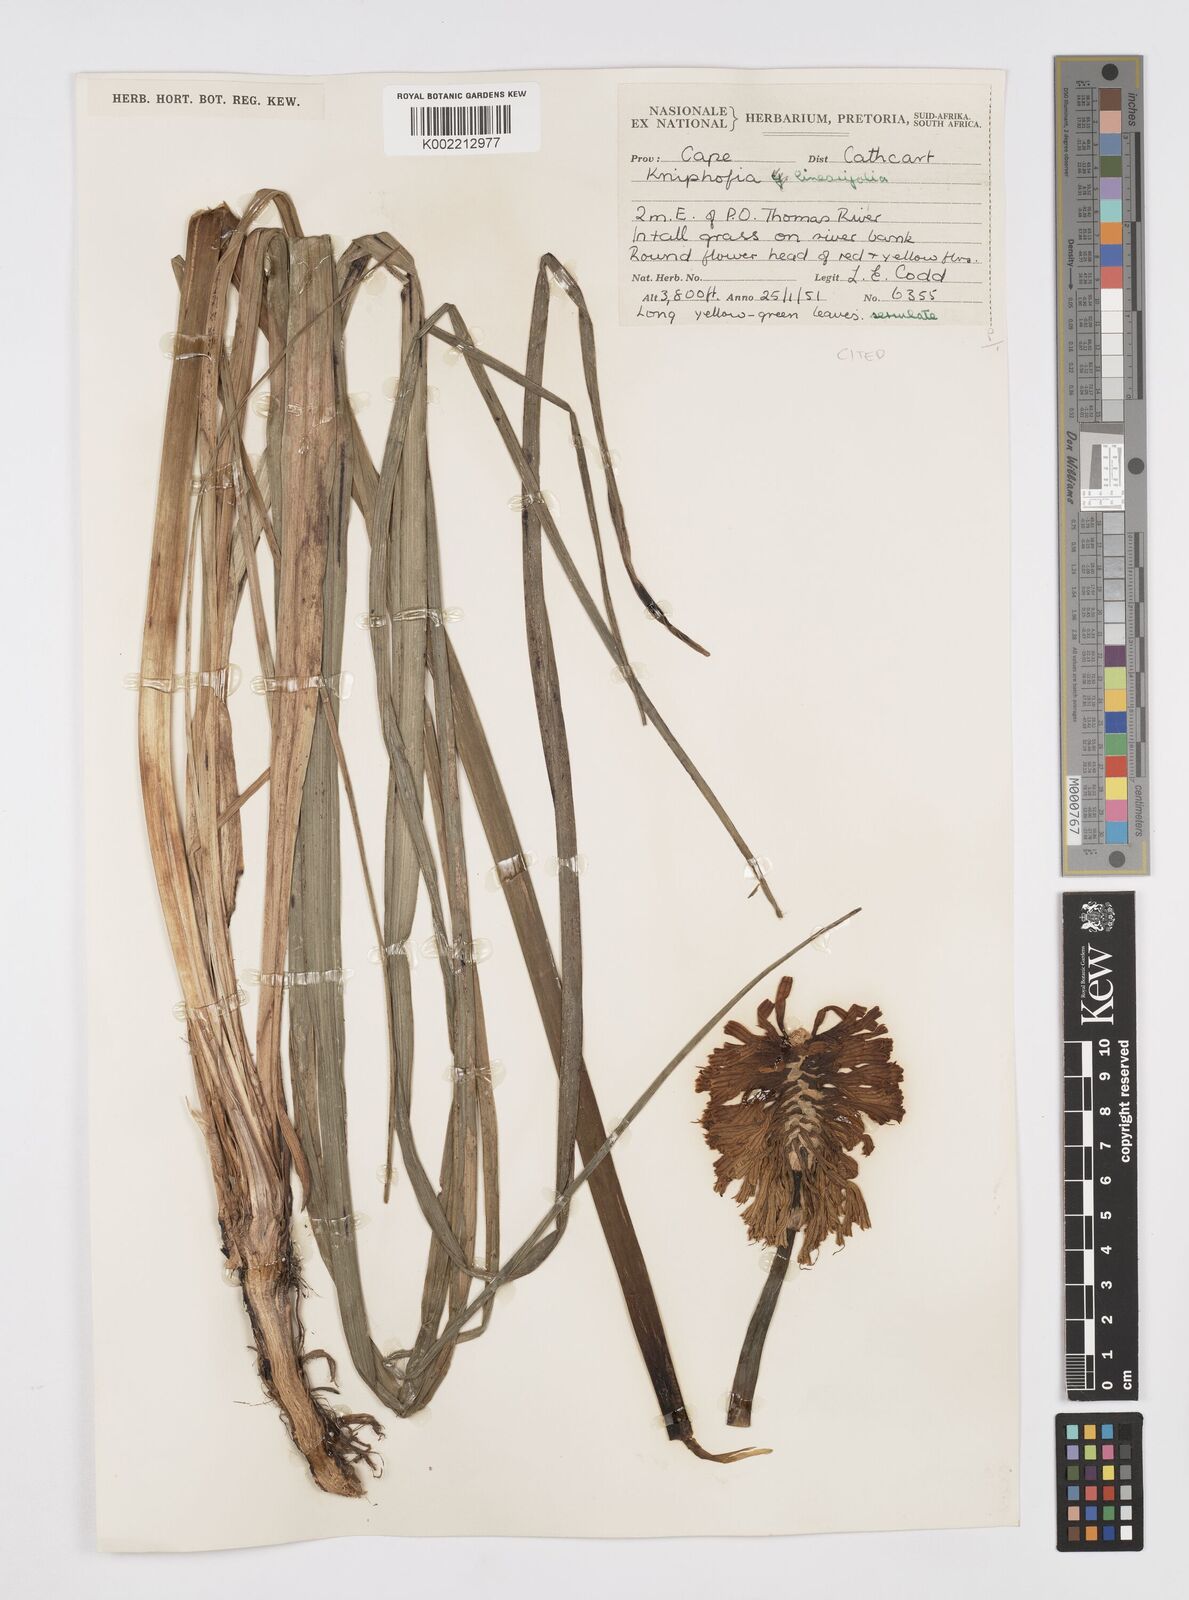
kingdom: Plantae
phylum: Tracheophyta
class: Liliopsida
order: Asparagales
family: Asphodelaceae
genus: Kniphofia
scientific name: Kniphofia linearifolia
